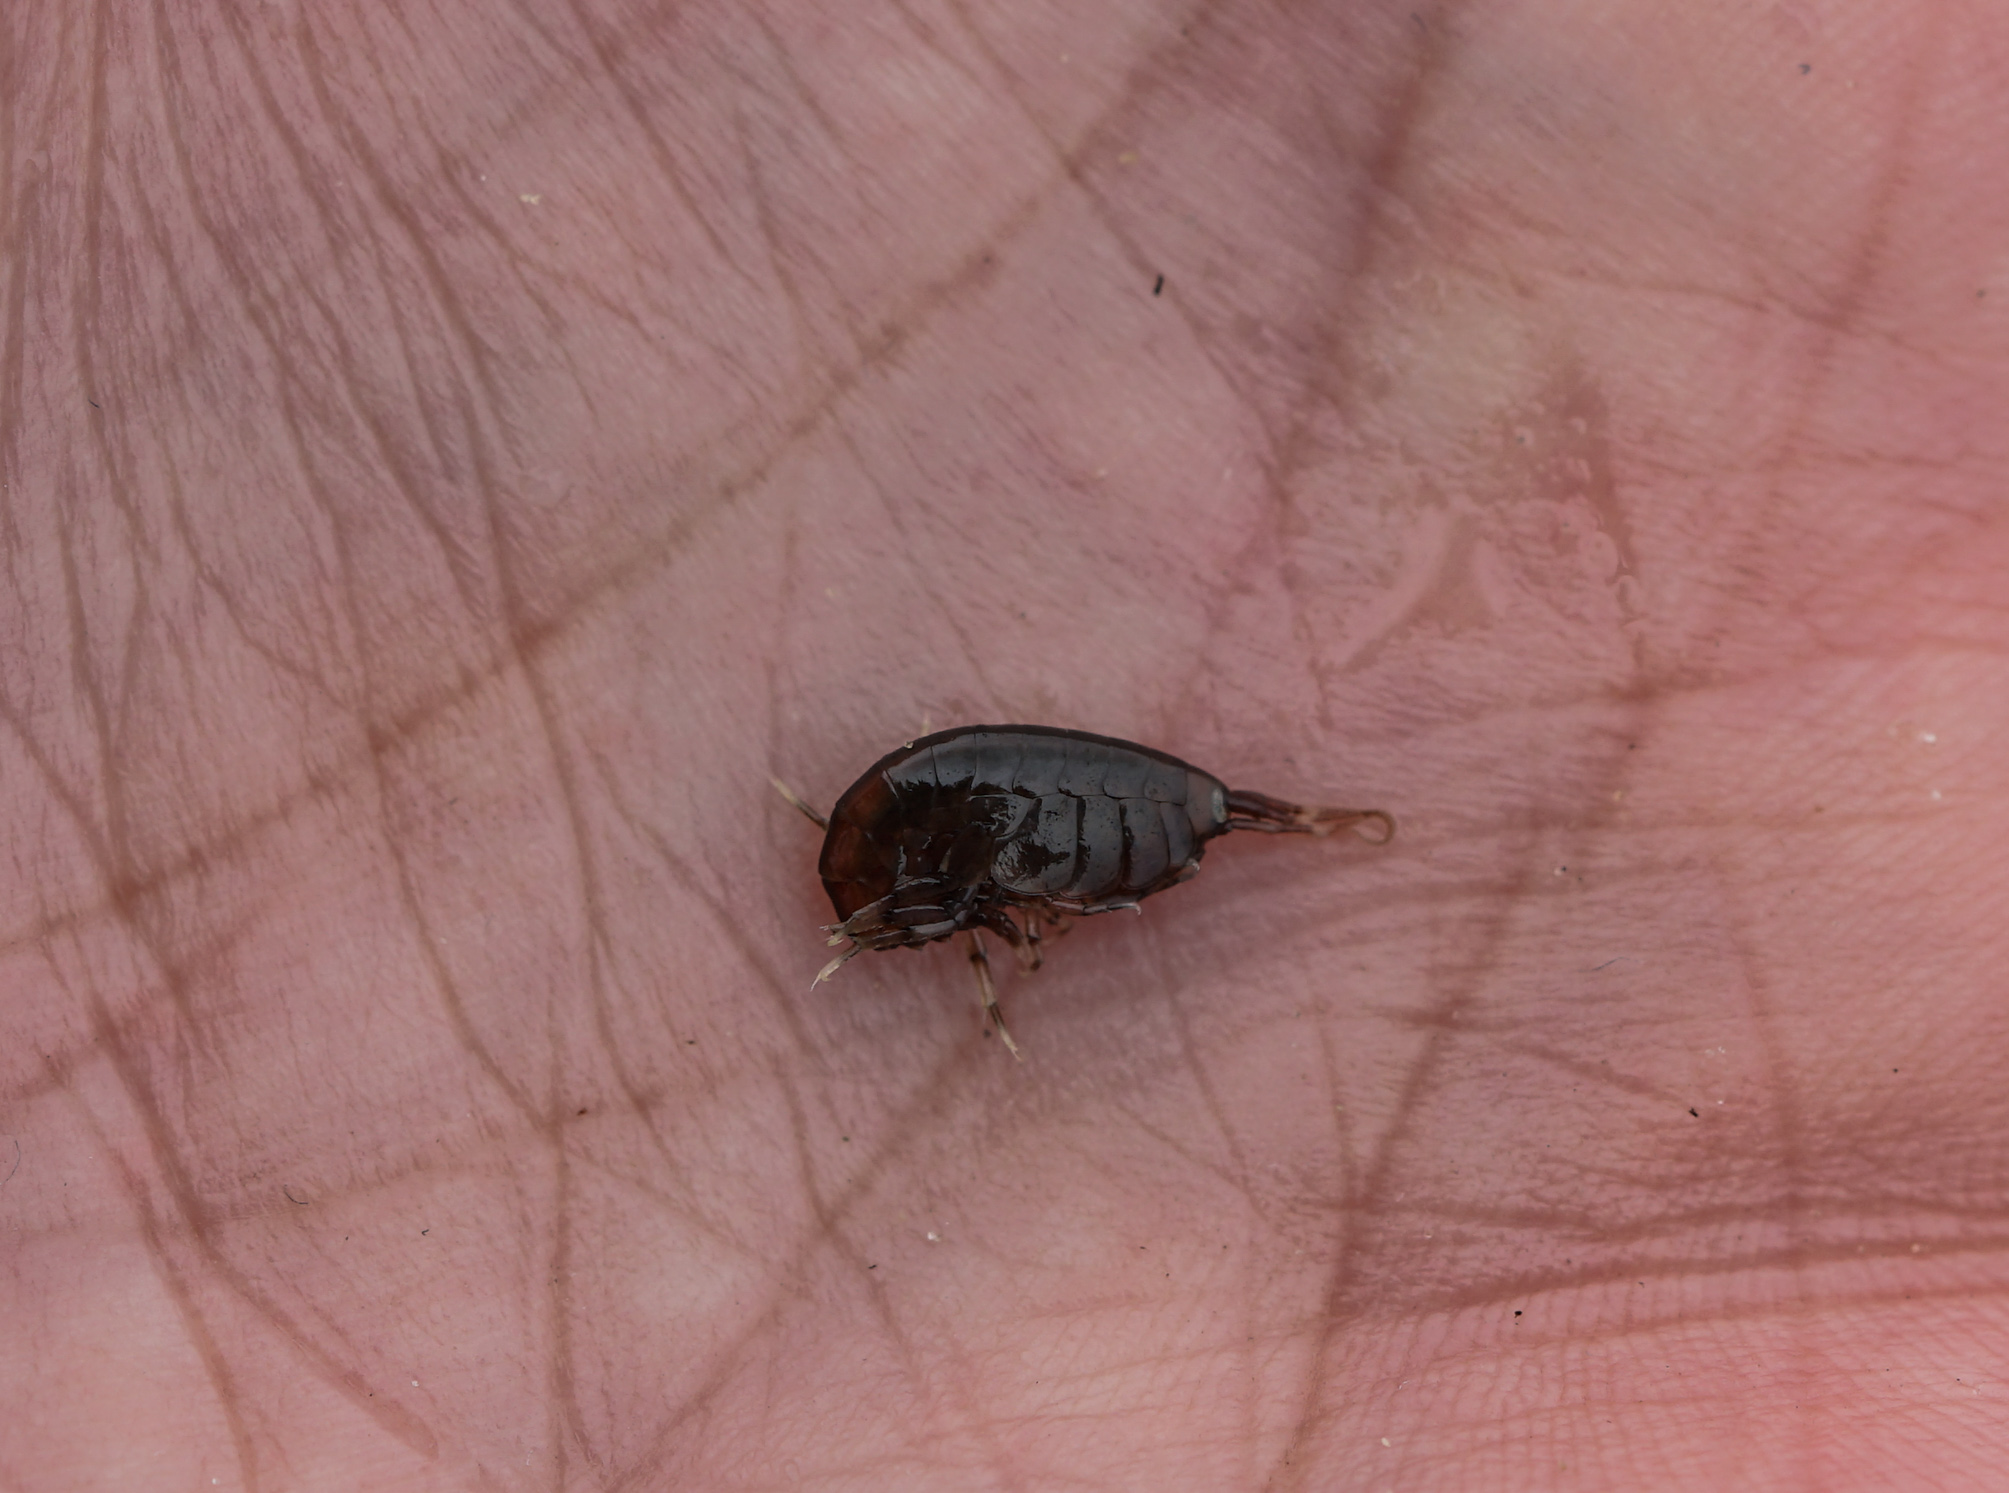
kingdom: Animalia
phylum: Arthropoda
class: Malacostraca
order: Amphipoda
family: Gammaridae
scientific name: Gammaridae
